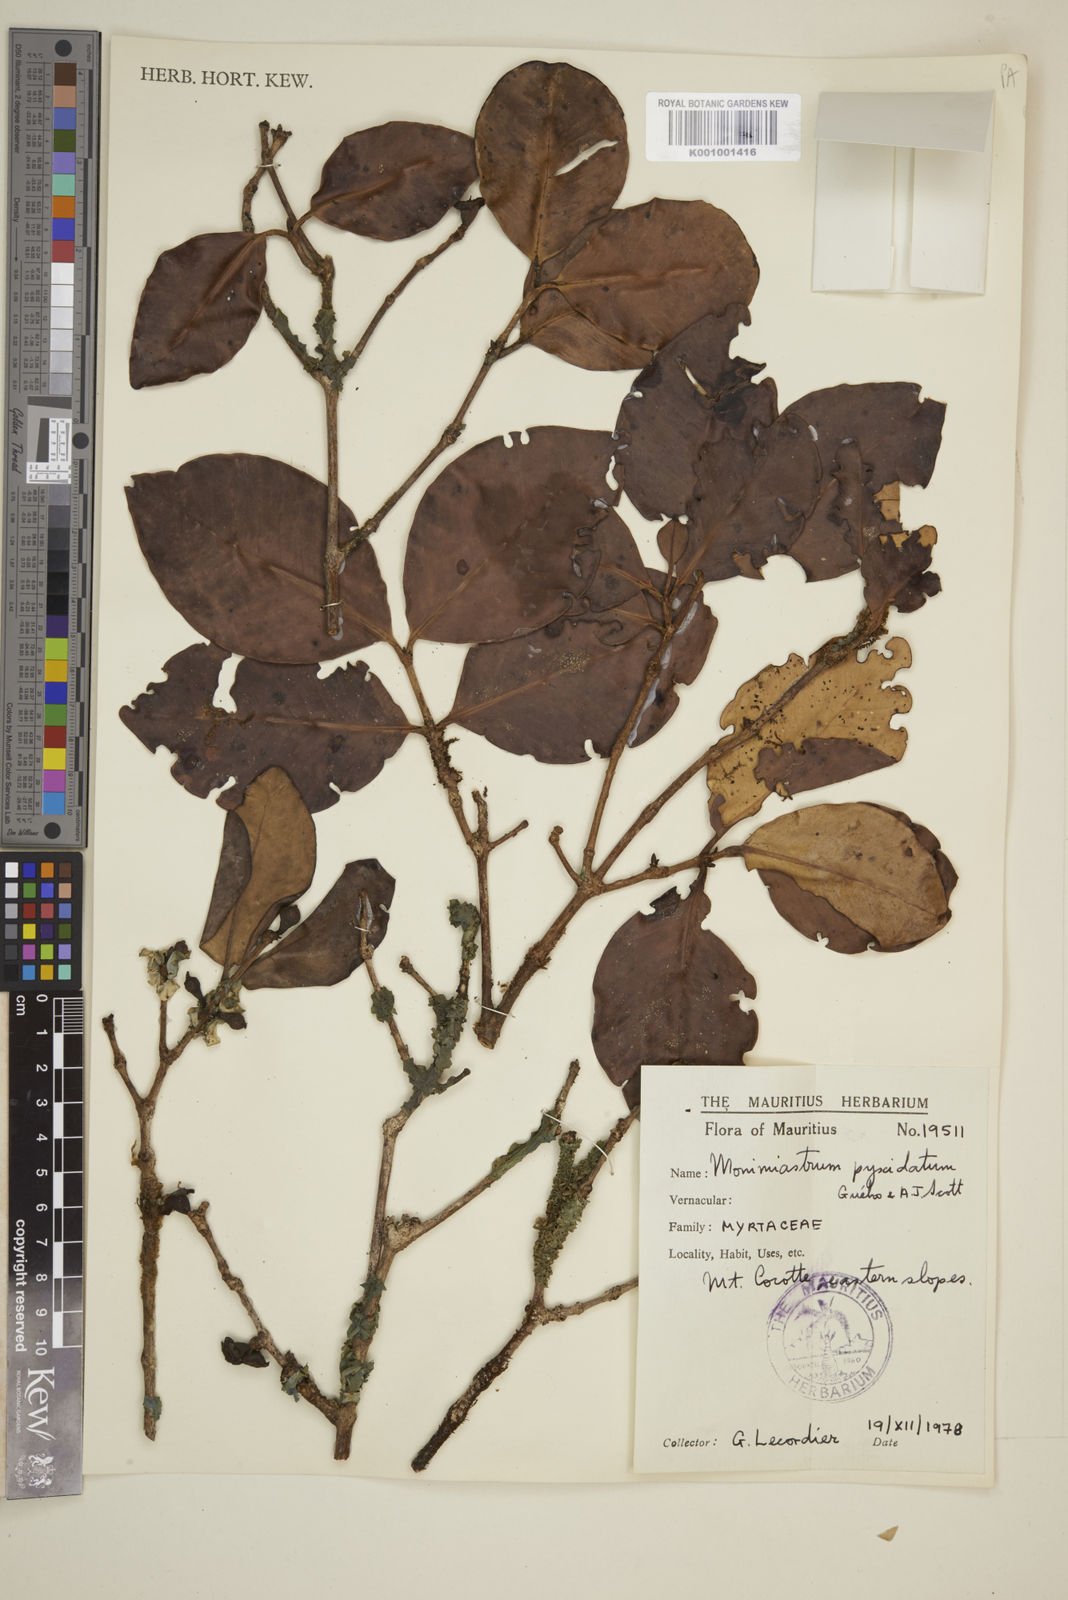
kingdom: Plantae
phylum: Tracheophyta
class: Magnoliopsida
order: Myrtales
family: Myrtaceae
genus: Eugenia
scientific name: Eugenia pyxidata
